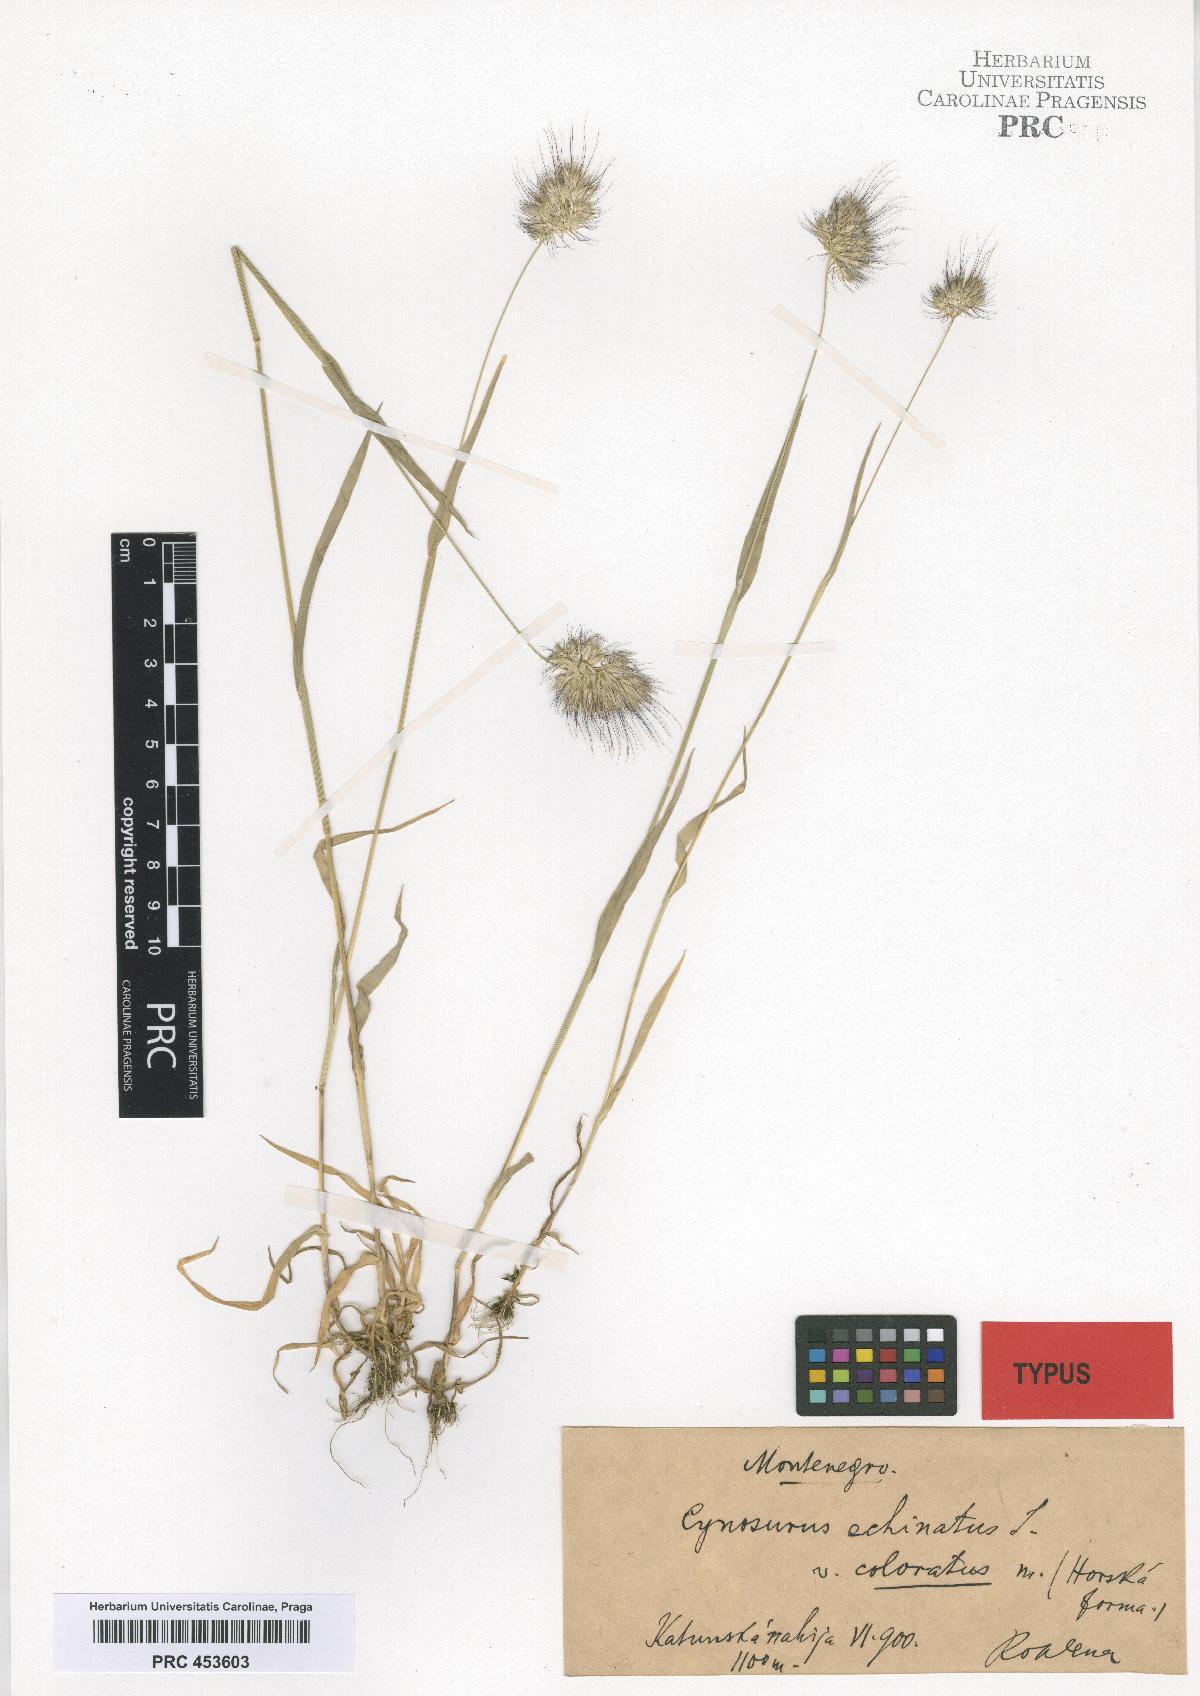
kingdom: Plantae
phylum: Tracheophyta
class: Liliopsida
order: Poales
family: Poaceae
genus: Cynosurus
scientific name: Cynosurus echinatus
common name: Rough dog's-tail
